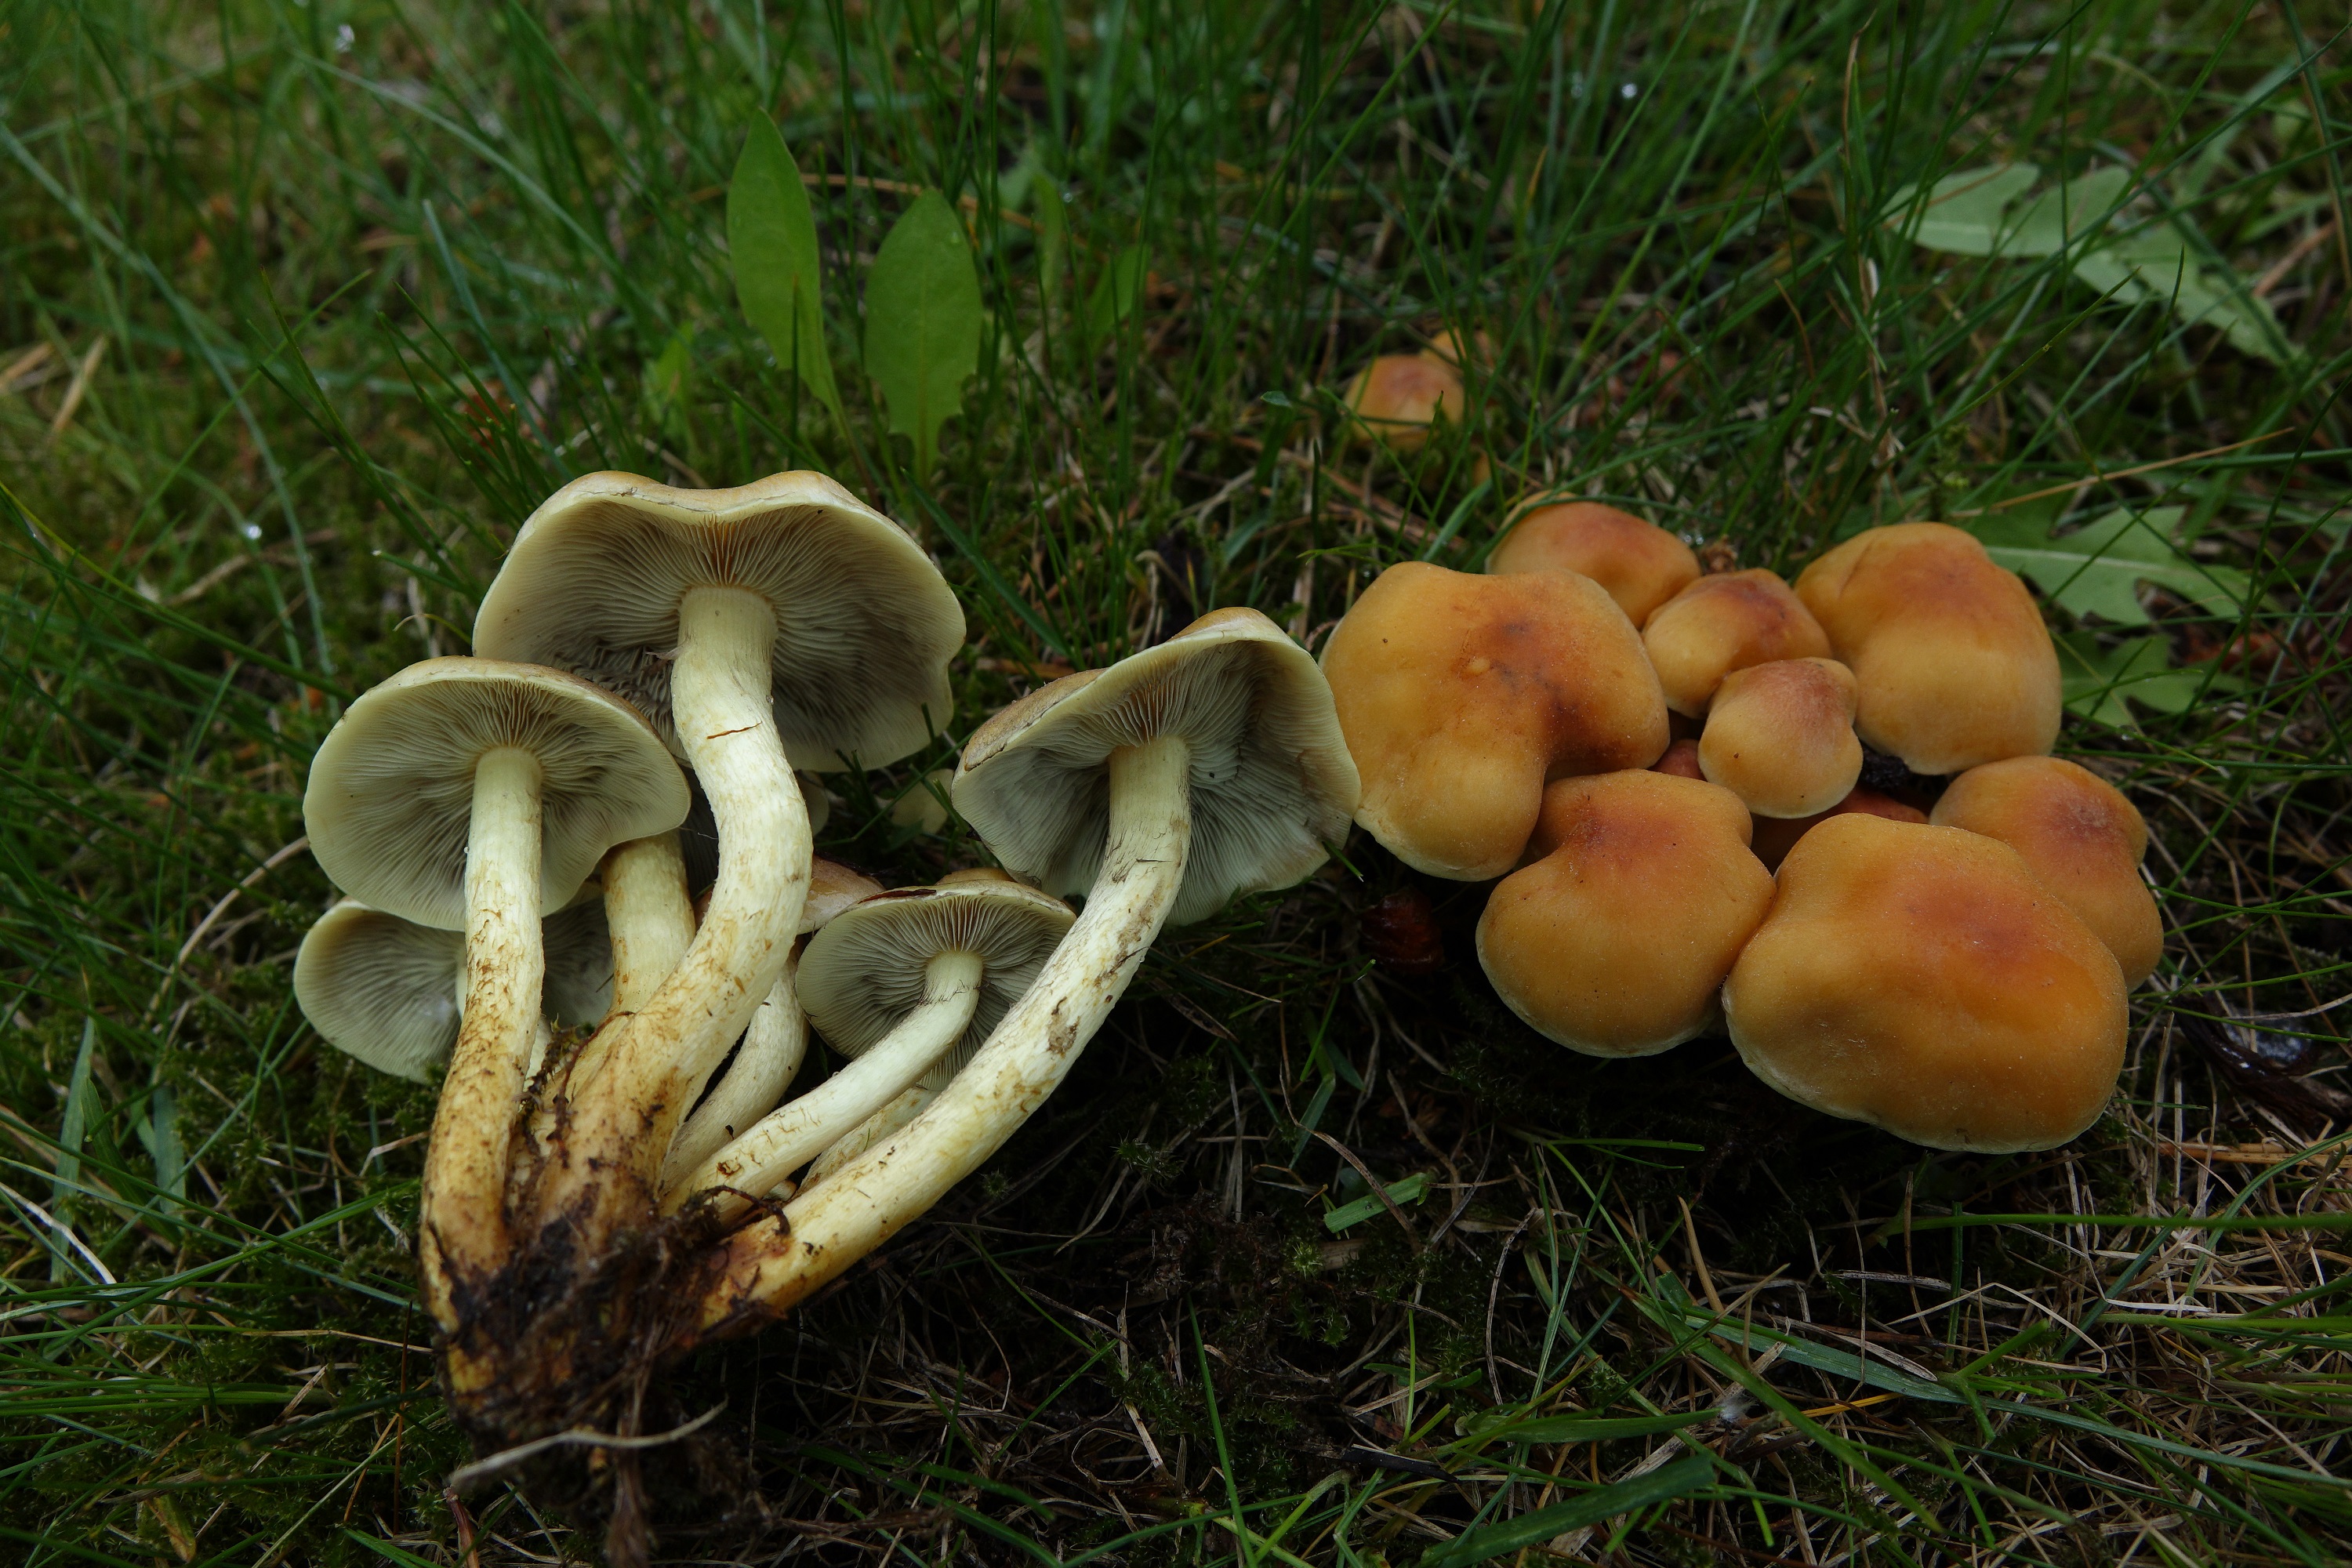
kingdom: Fungi
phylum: Basidiomycota
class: Agaricomycetes
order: Agaricales
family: Strophariaceae
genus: Hypholoma
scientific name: Hypholoma fasciculare
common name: Sulphur tuft
